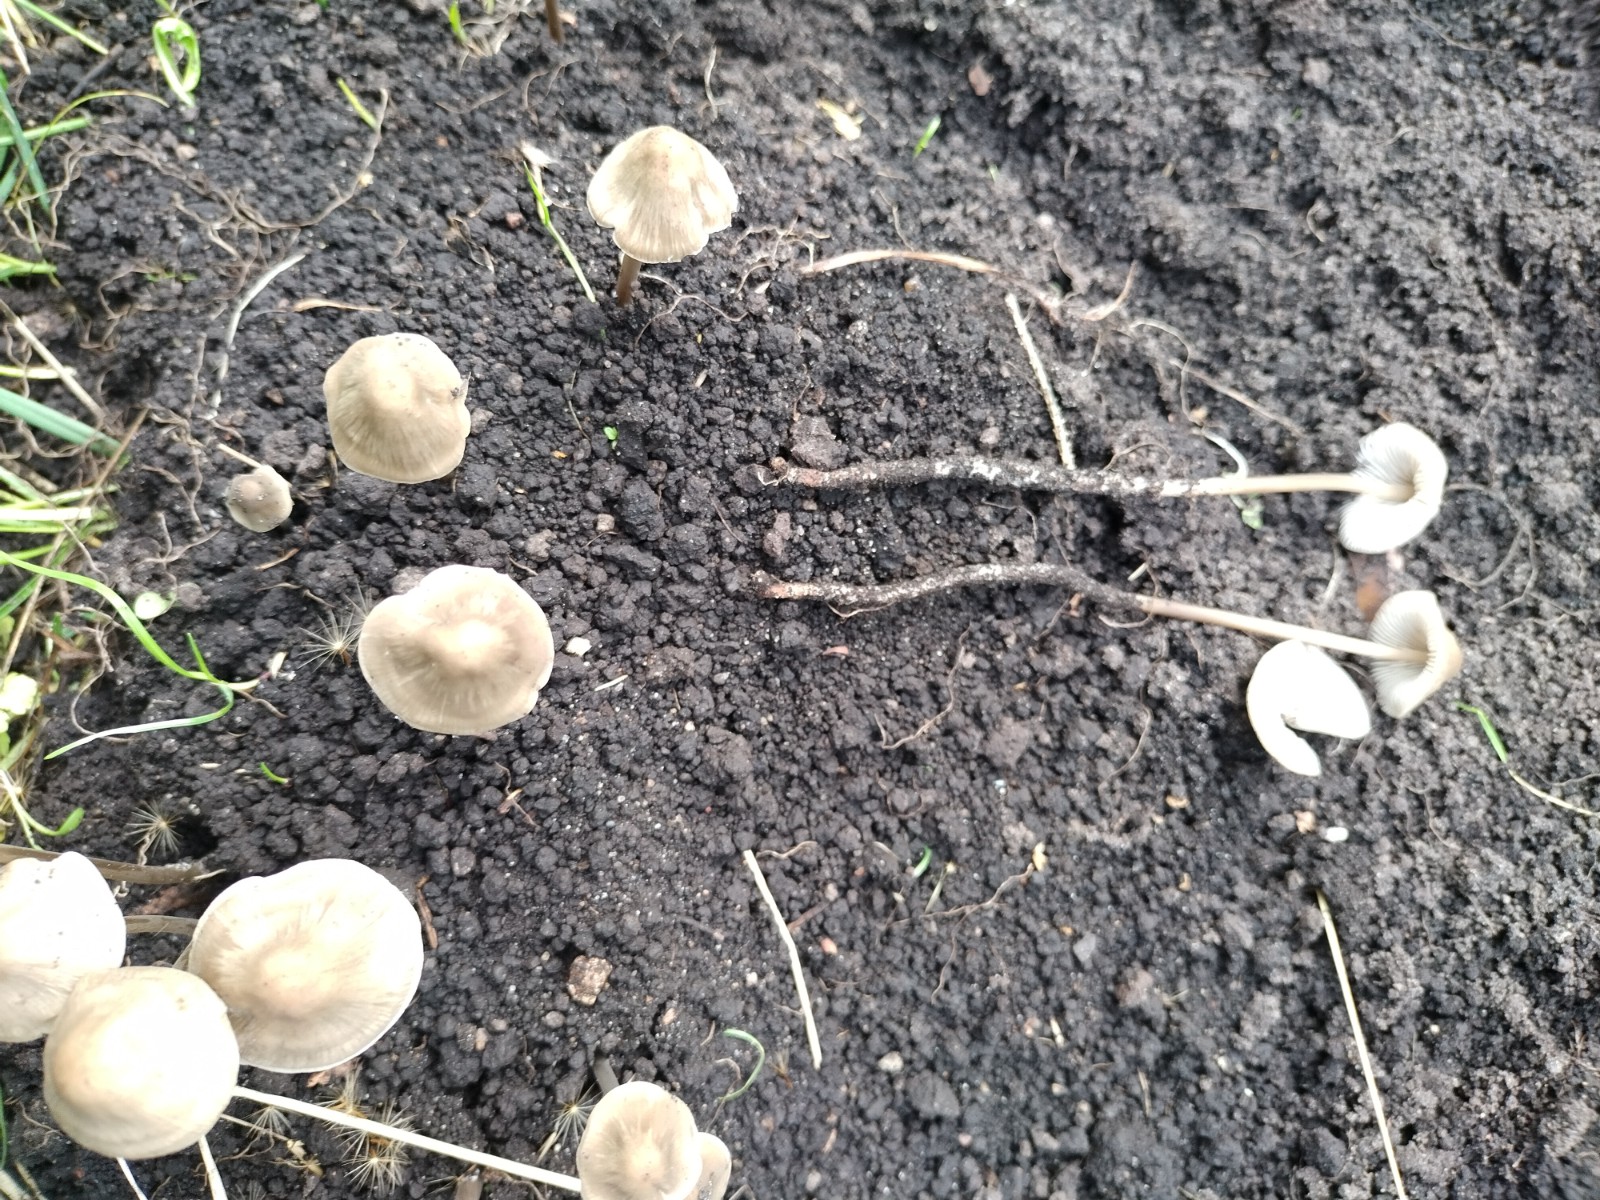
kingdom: Fungi
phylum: Basidiomycota
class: Agaricomycetes
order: Agaricales
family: Mycenaceae
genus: Mycena
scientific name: Mycena galericulata
